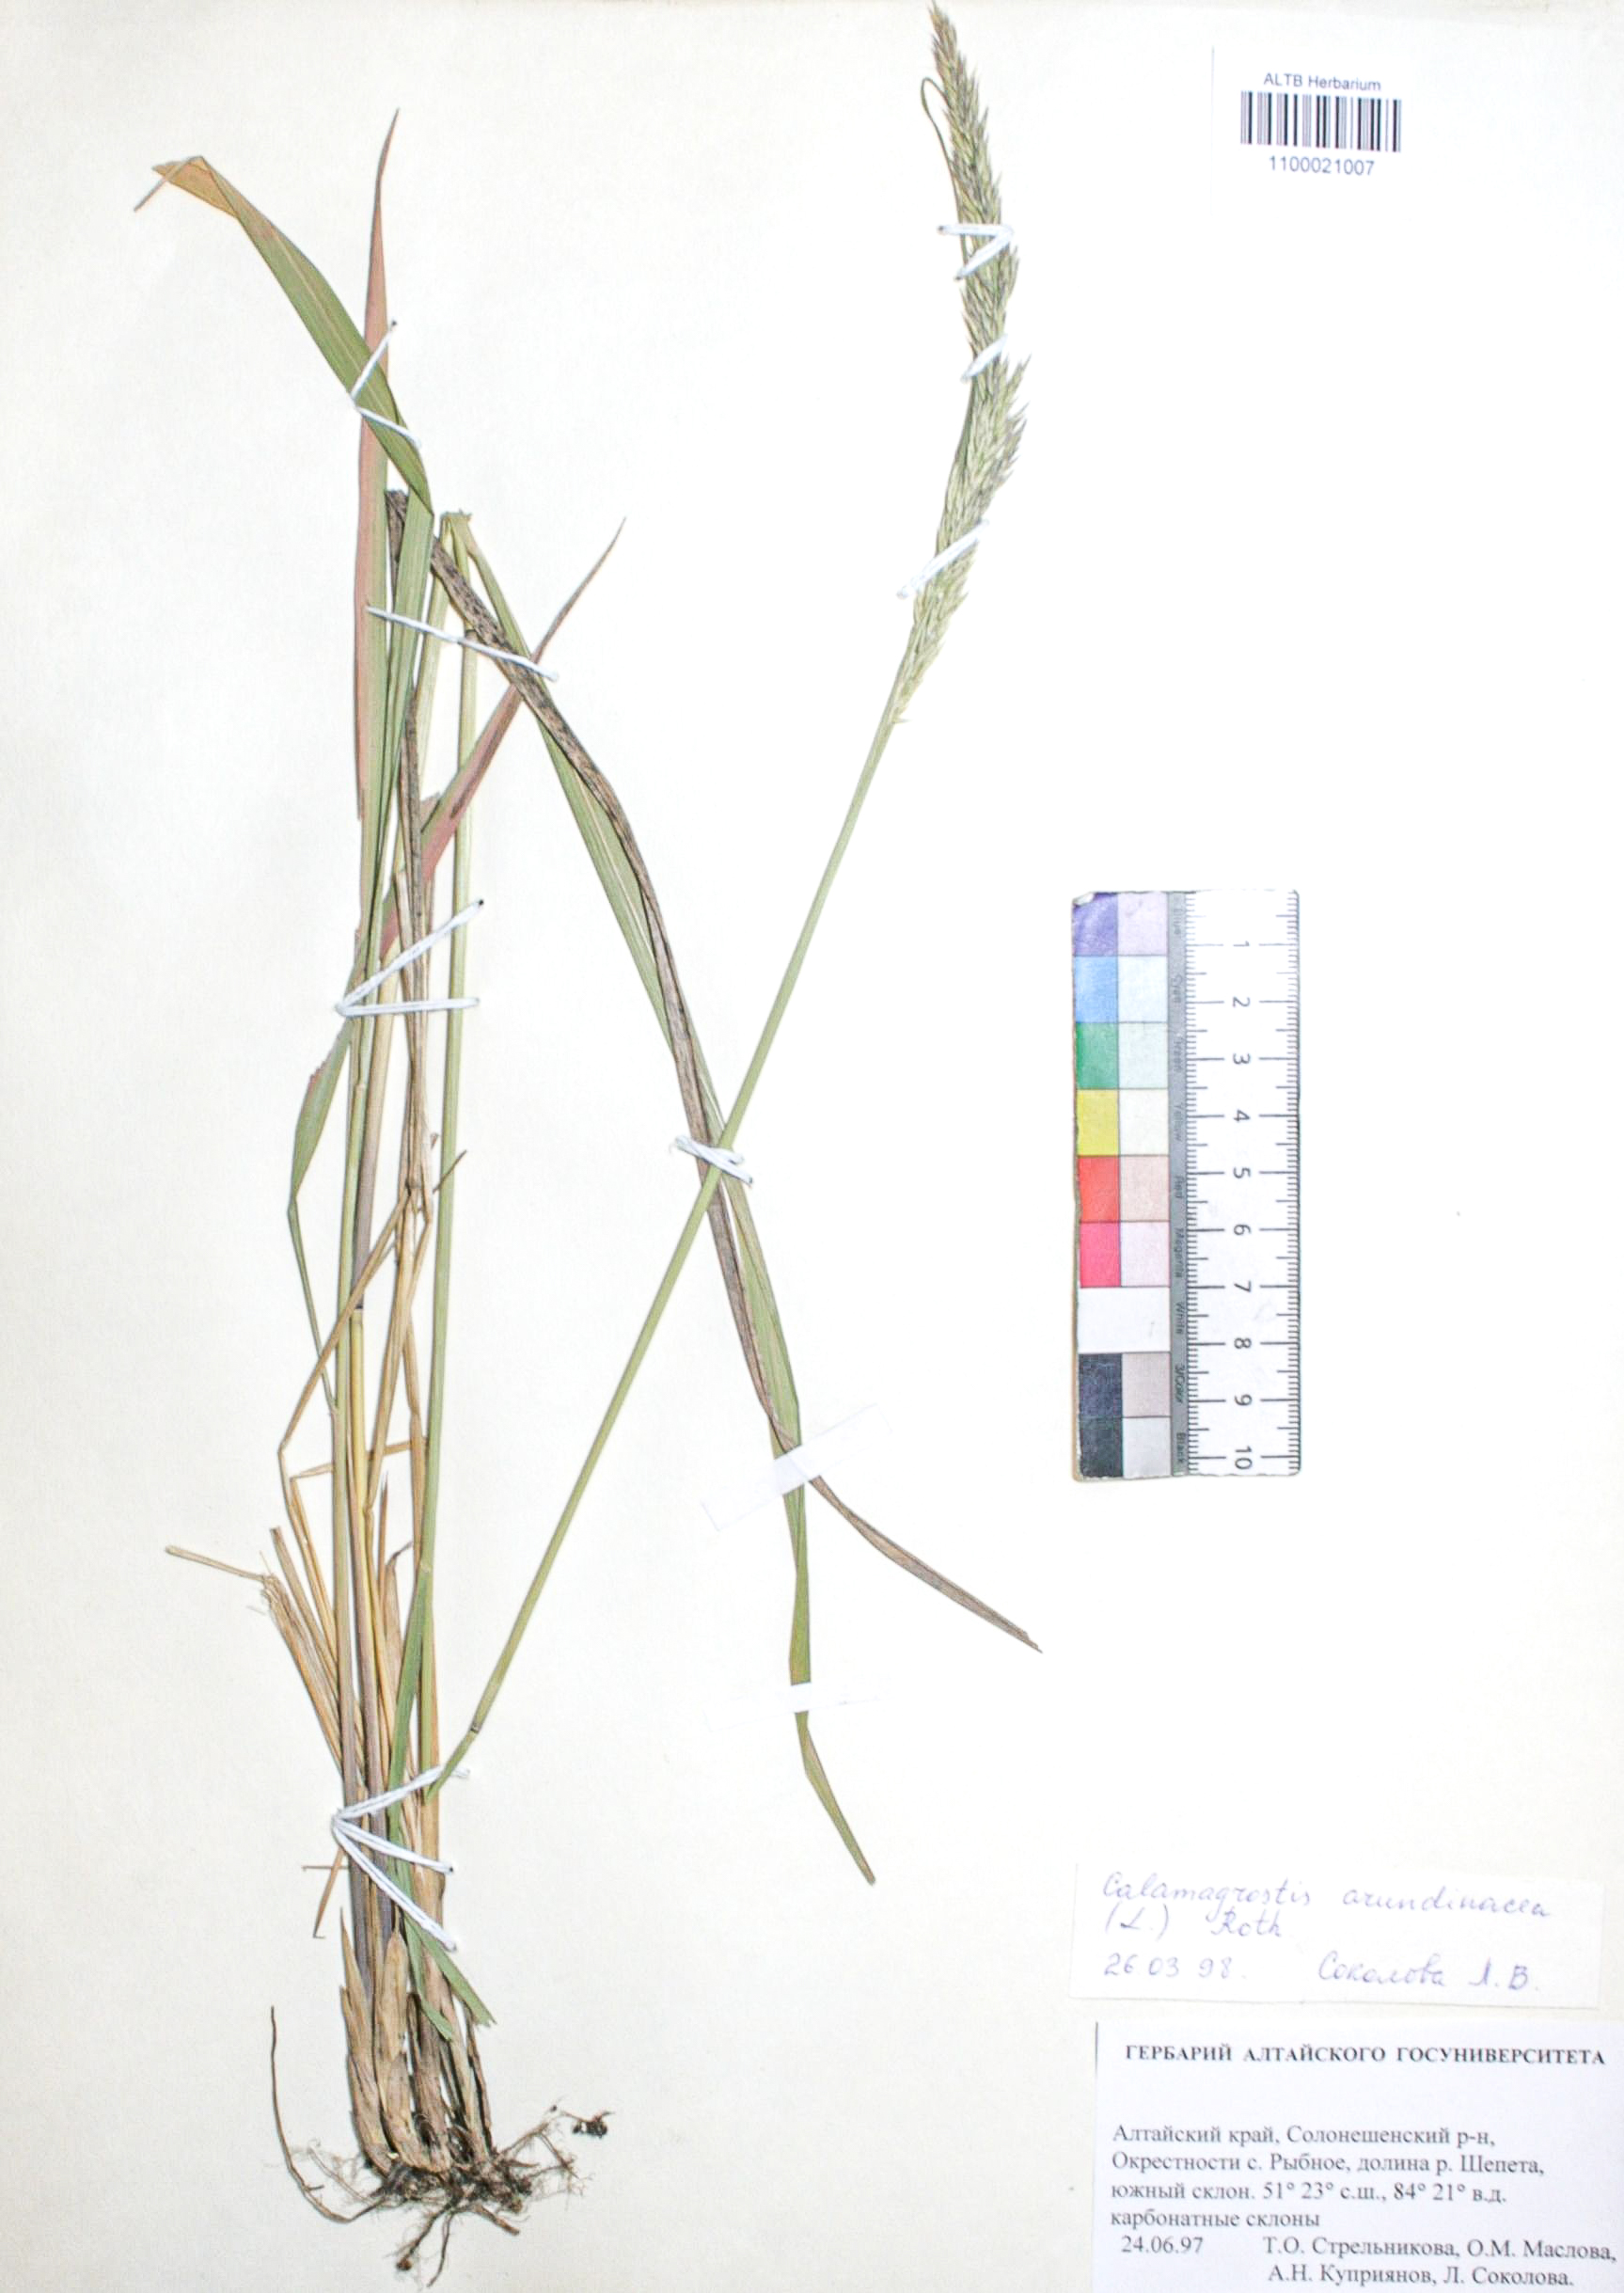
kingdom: Plantae
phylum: Tracheophyta
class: Liliopsida
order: Poales
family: Poaceae
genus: Calamagrostis
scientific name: Calamagrostis arundinacea
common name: Metskastik
